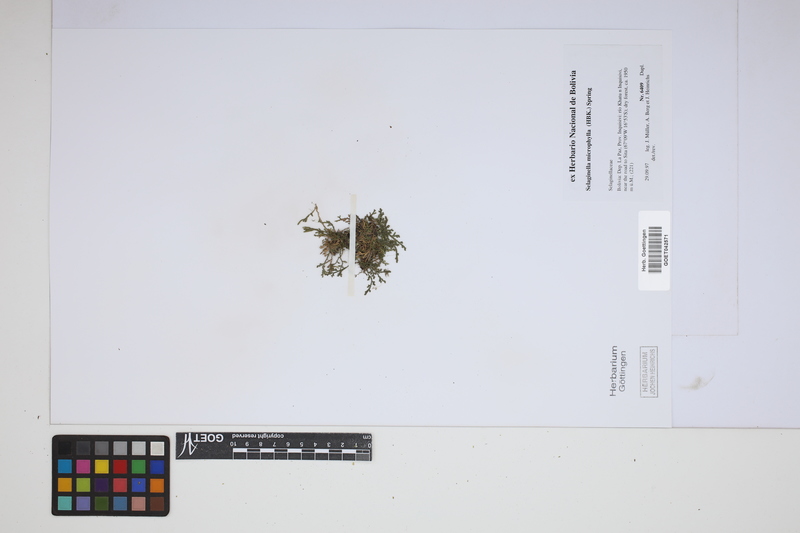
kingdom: Plantae
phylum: Tracheophyta
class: Lycopodiopsida
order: Selaginellales
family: Selaginellaceae
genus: Selaginella
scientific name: Selaginella microphylla
